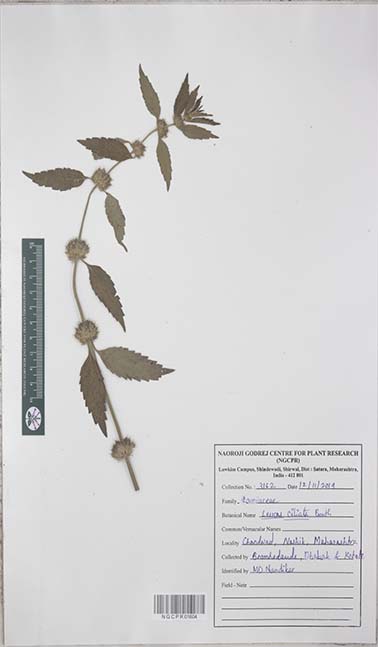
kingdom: Plantae
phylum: Tracheophyta
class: Magnoliopsida
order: Lamiales
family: Lamiaceae
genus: Leucas
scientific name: Leucas ciliata
